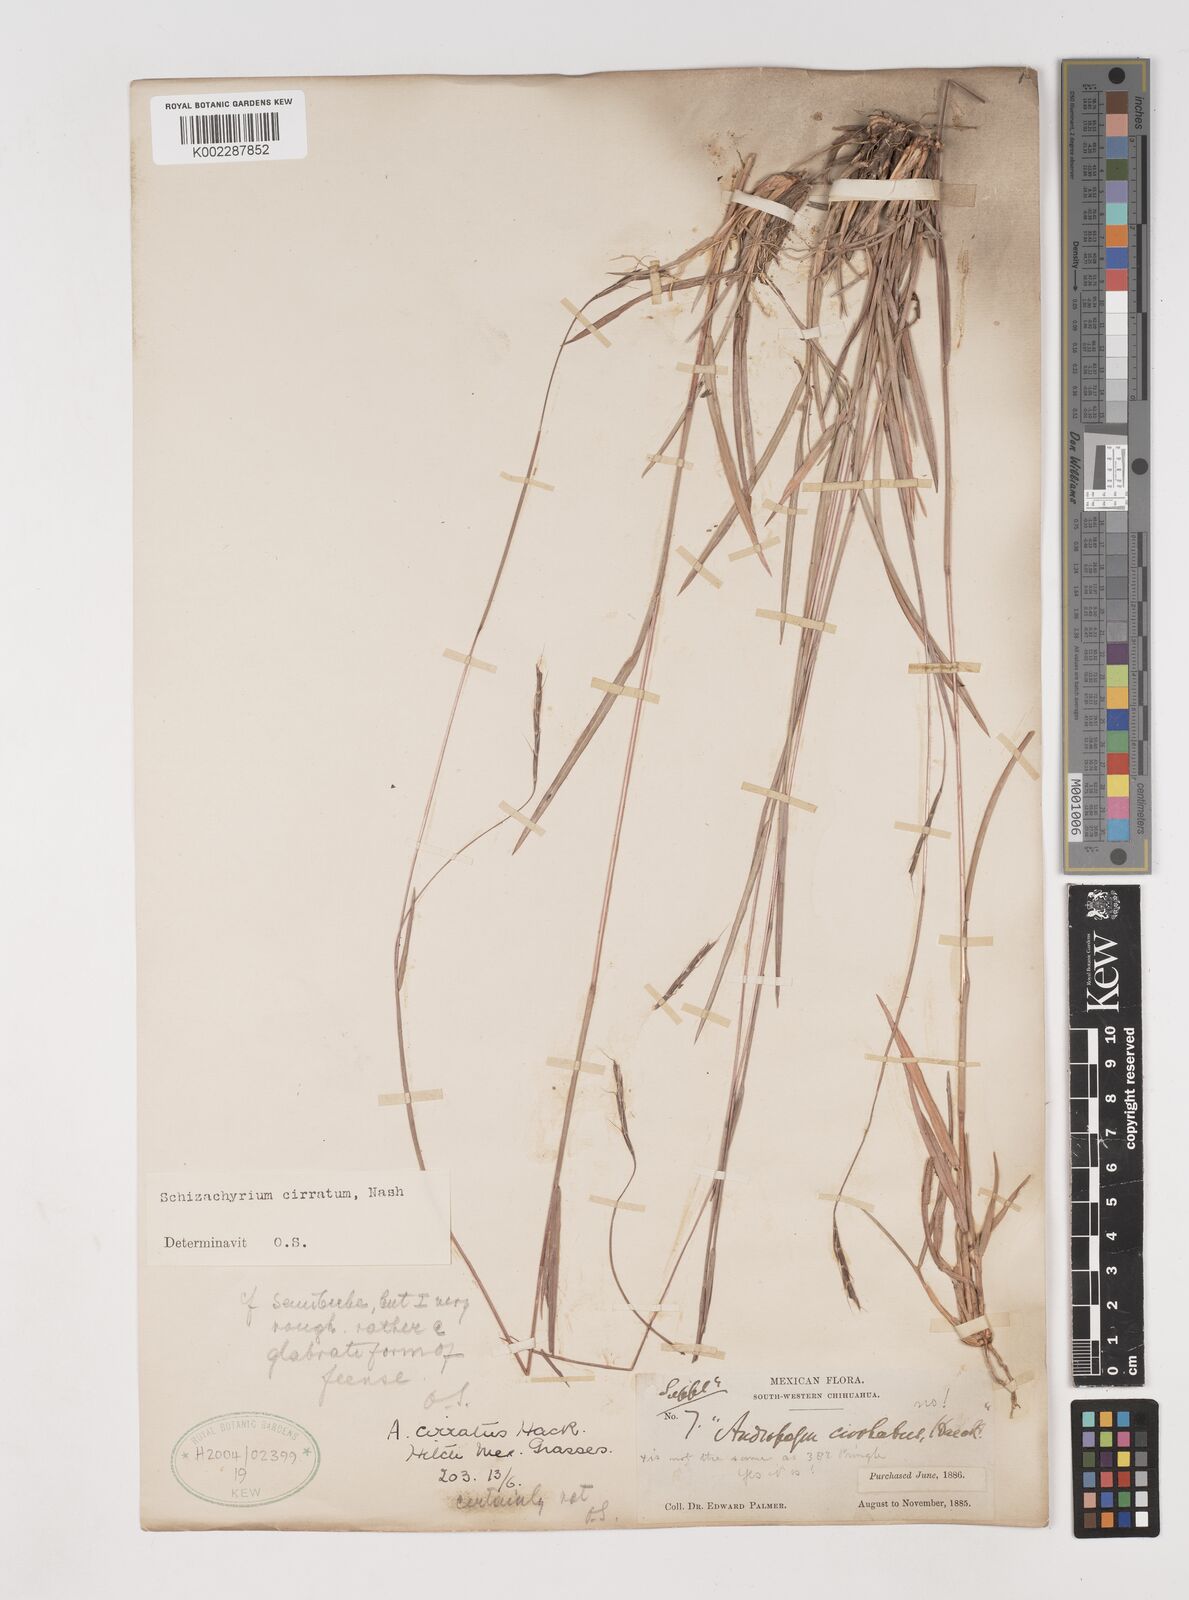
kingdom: Plantae
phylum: Tracheophyta
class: Liliopsida
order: Poales
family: Poaceae
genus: Andropogon
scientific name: Andropogon cirratus
